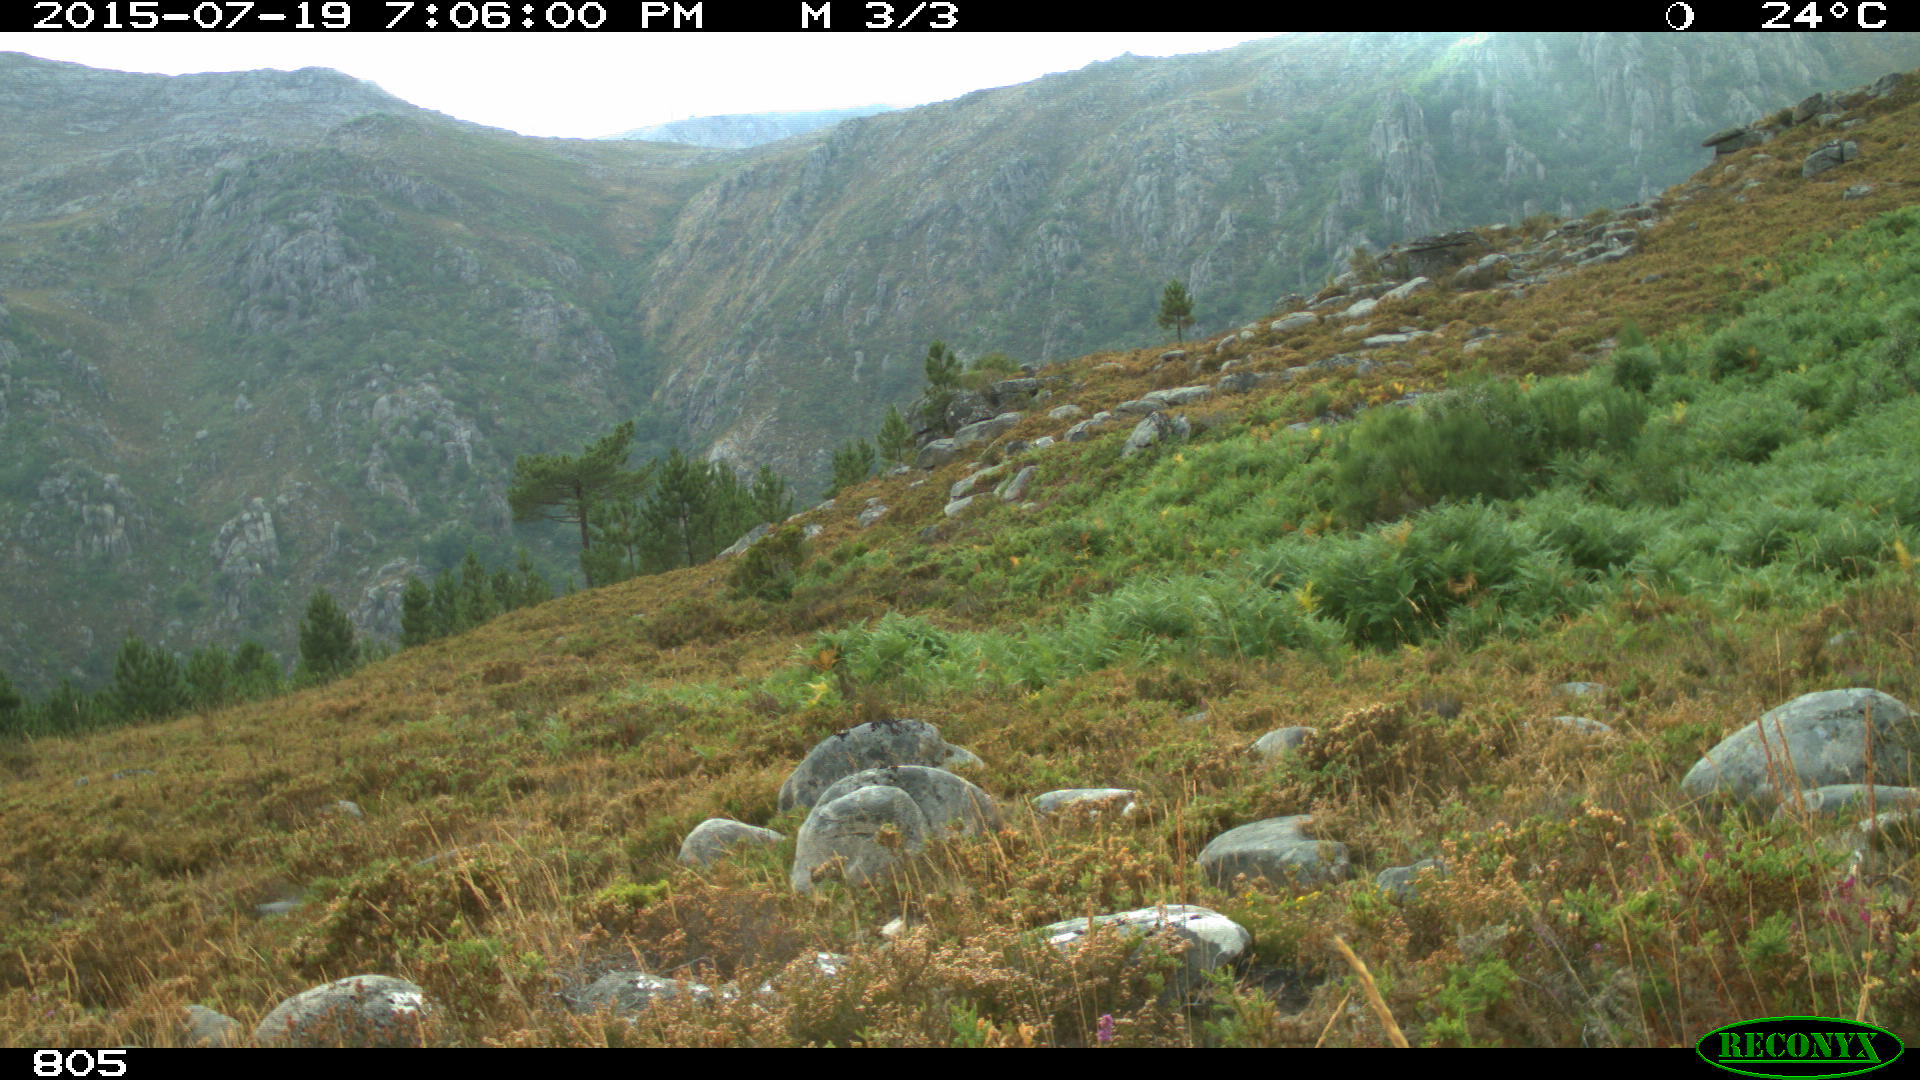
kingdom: Animalia
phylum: Chordata
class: Mammalia
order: Perissodactyla
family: Equidae
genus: Equus
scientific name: Equus caballus
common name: Horse
